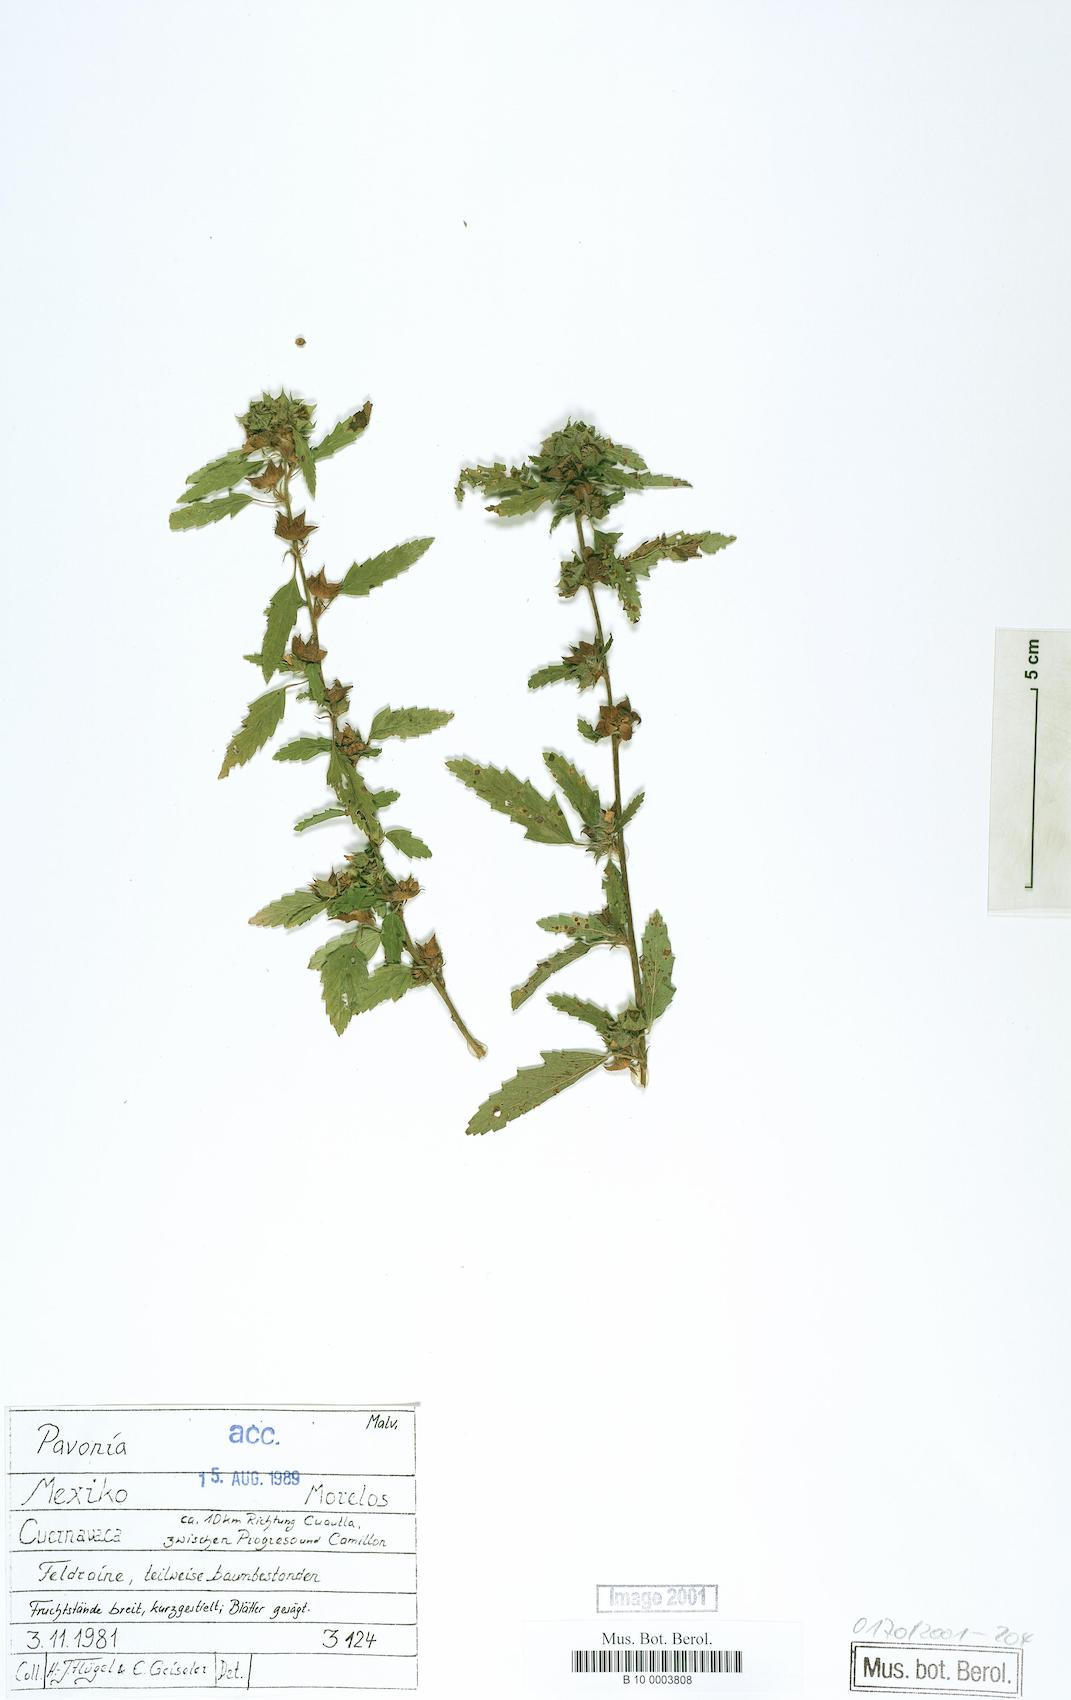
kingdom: Plantae
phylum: Tracheophyta
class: Magnoliopsida
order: Malvales
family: Malvaceae
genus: Pavonia
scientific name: Pavonia
